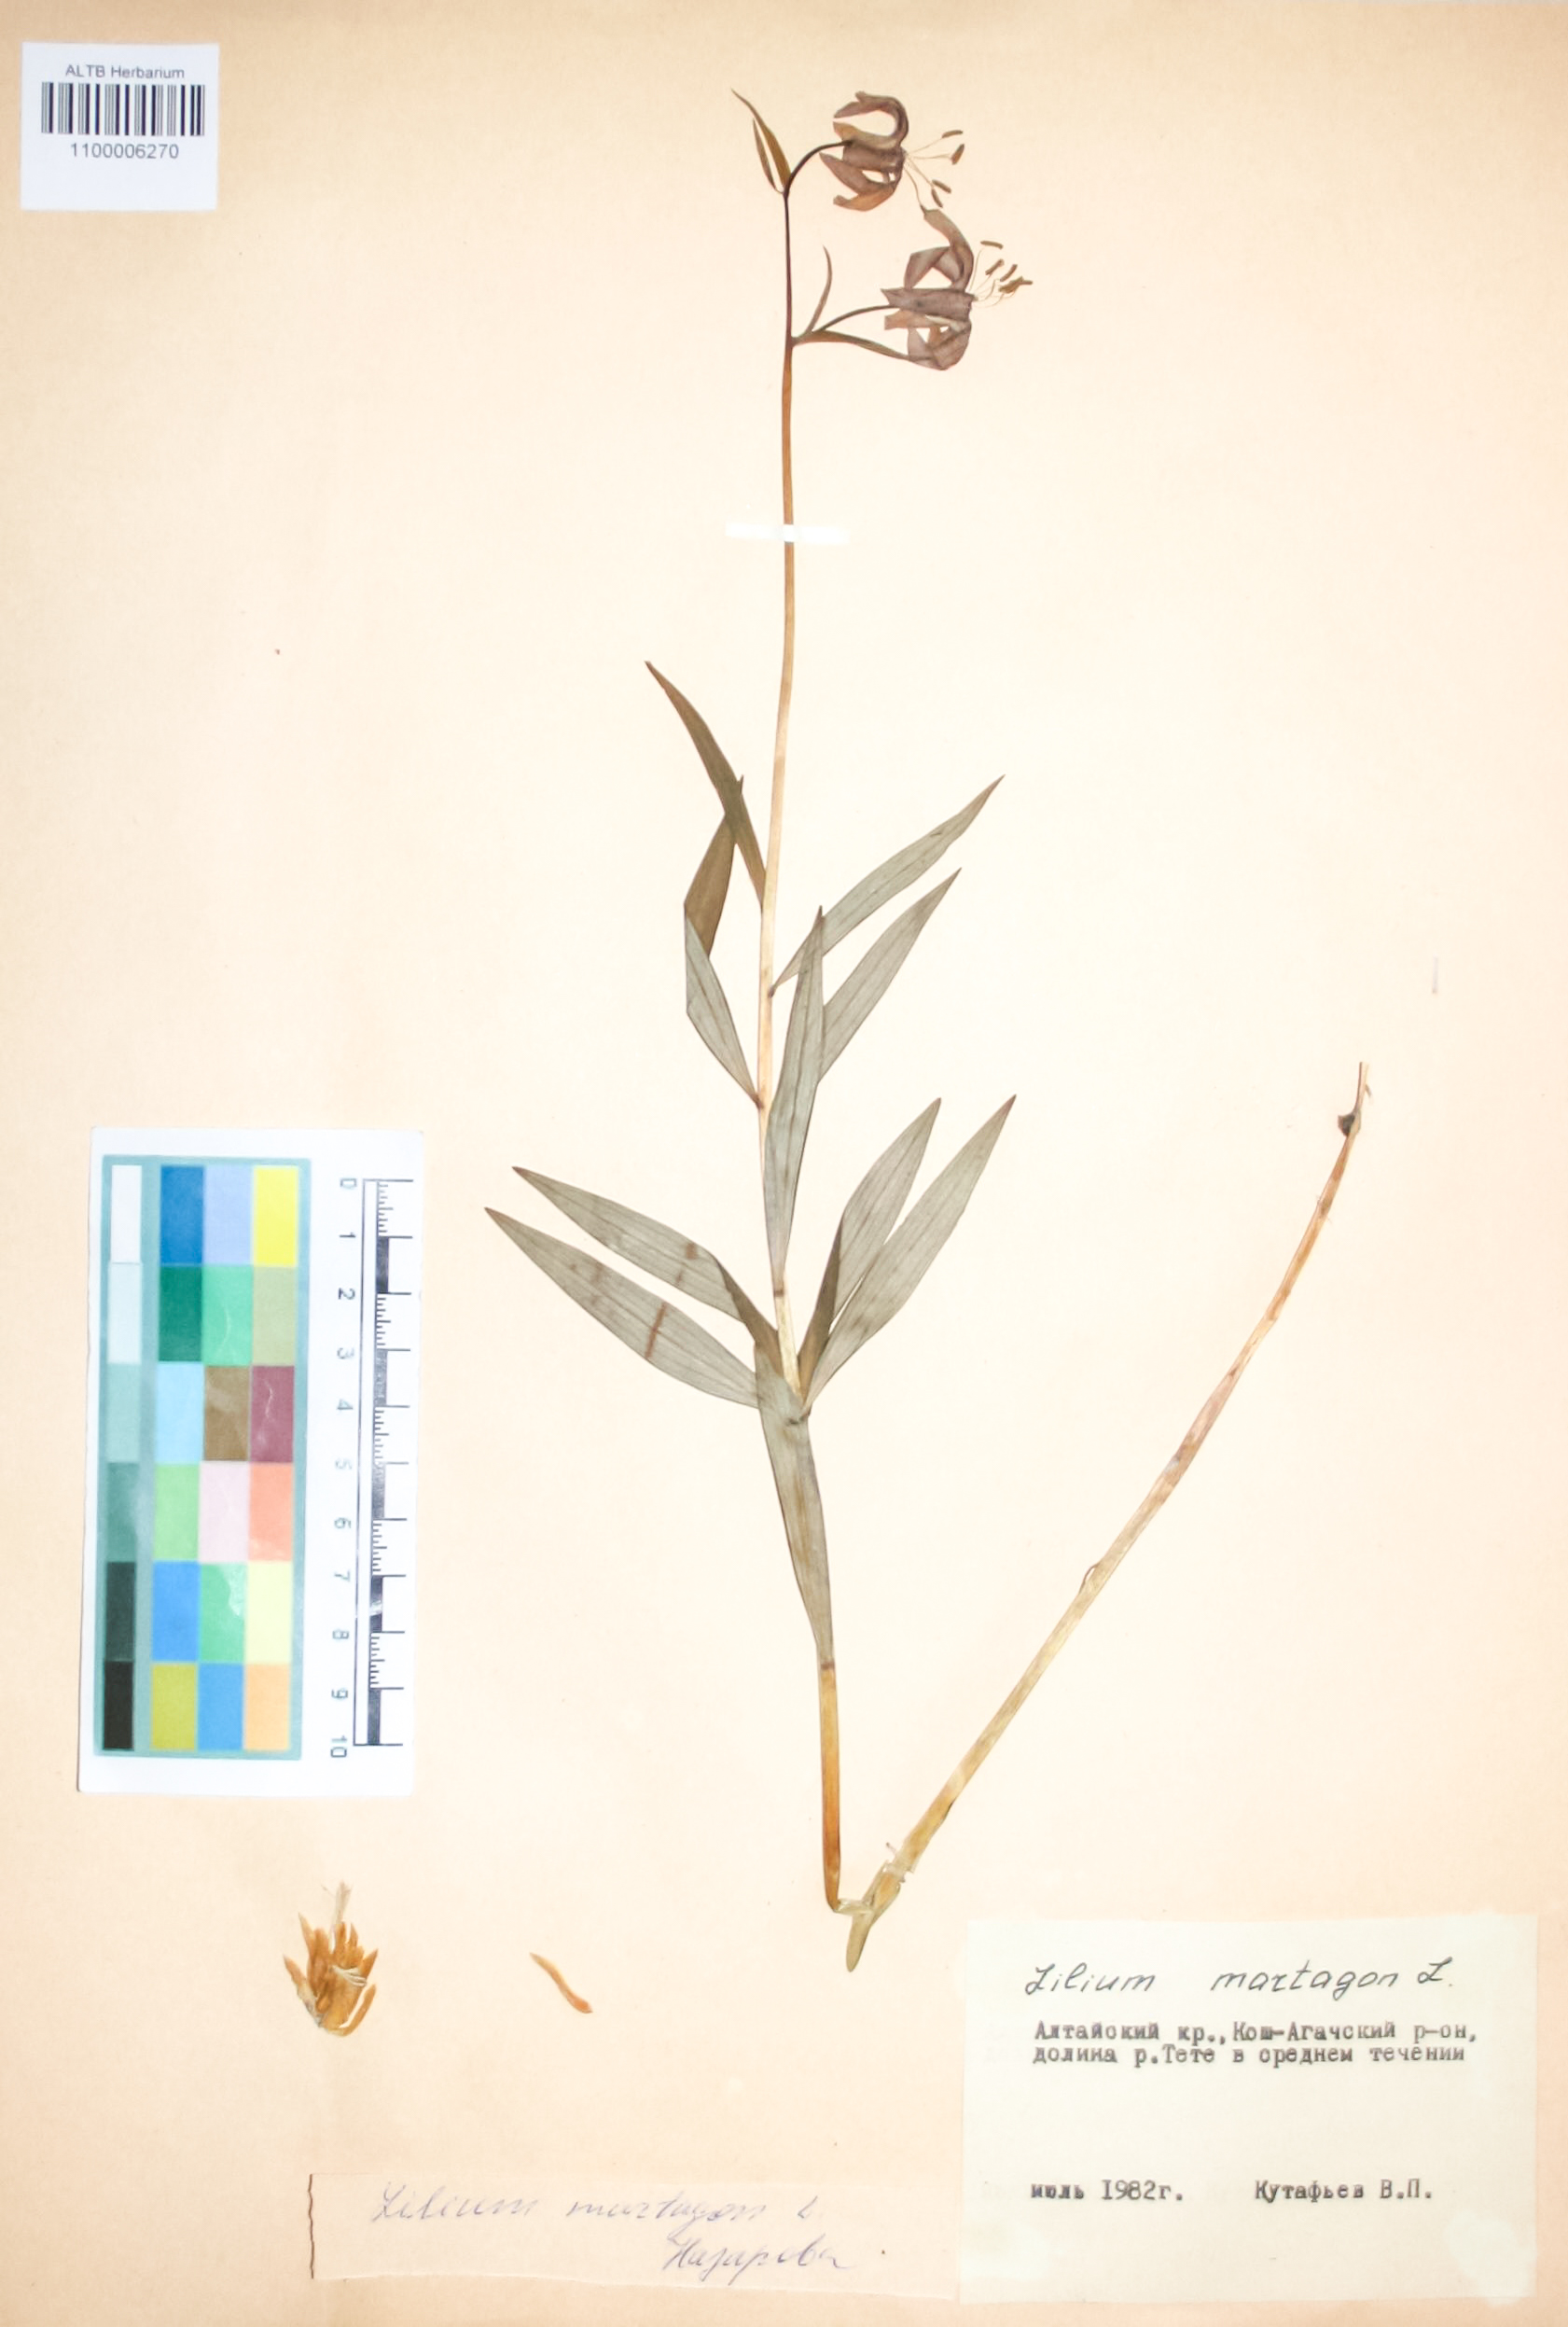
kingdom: Plantae
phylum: Tracheophyta
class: Liliopsida
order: Liliales
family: Liliaceae
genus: Lilium
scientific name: Lilium martagon
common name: Martagon lily
